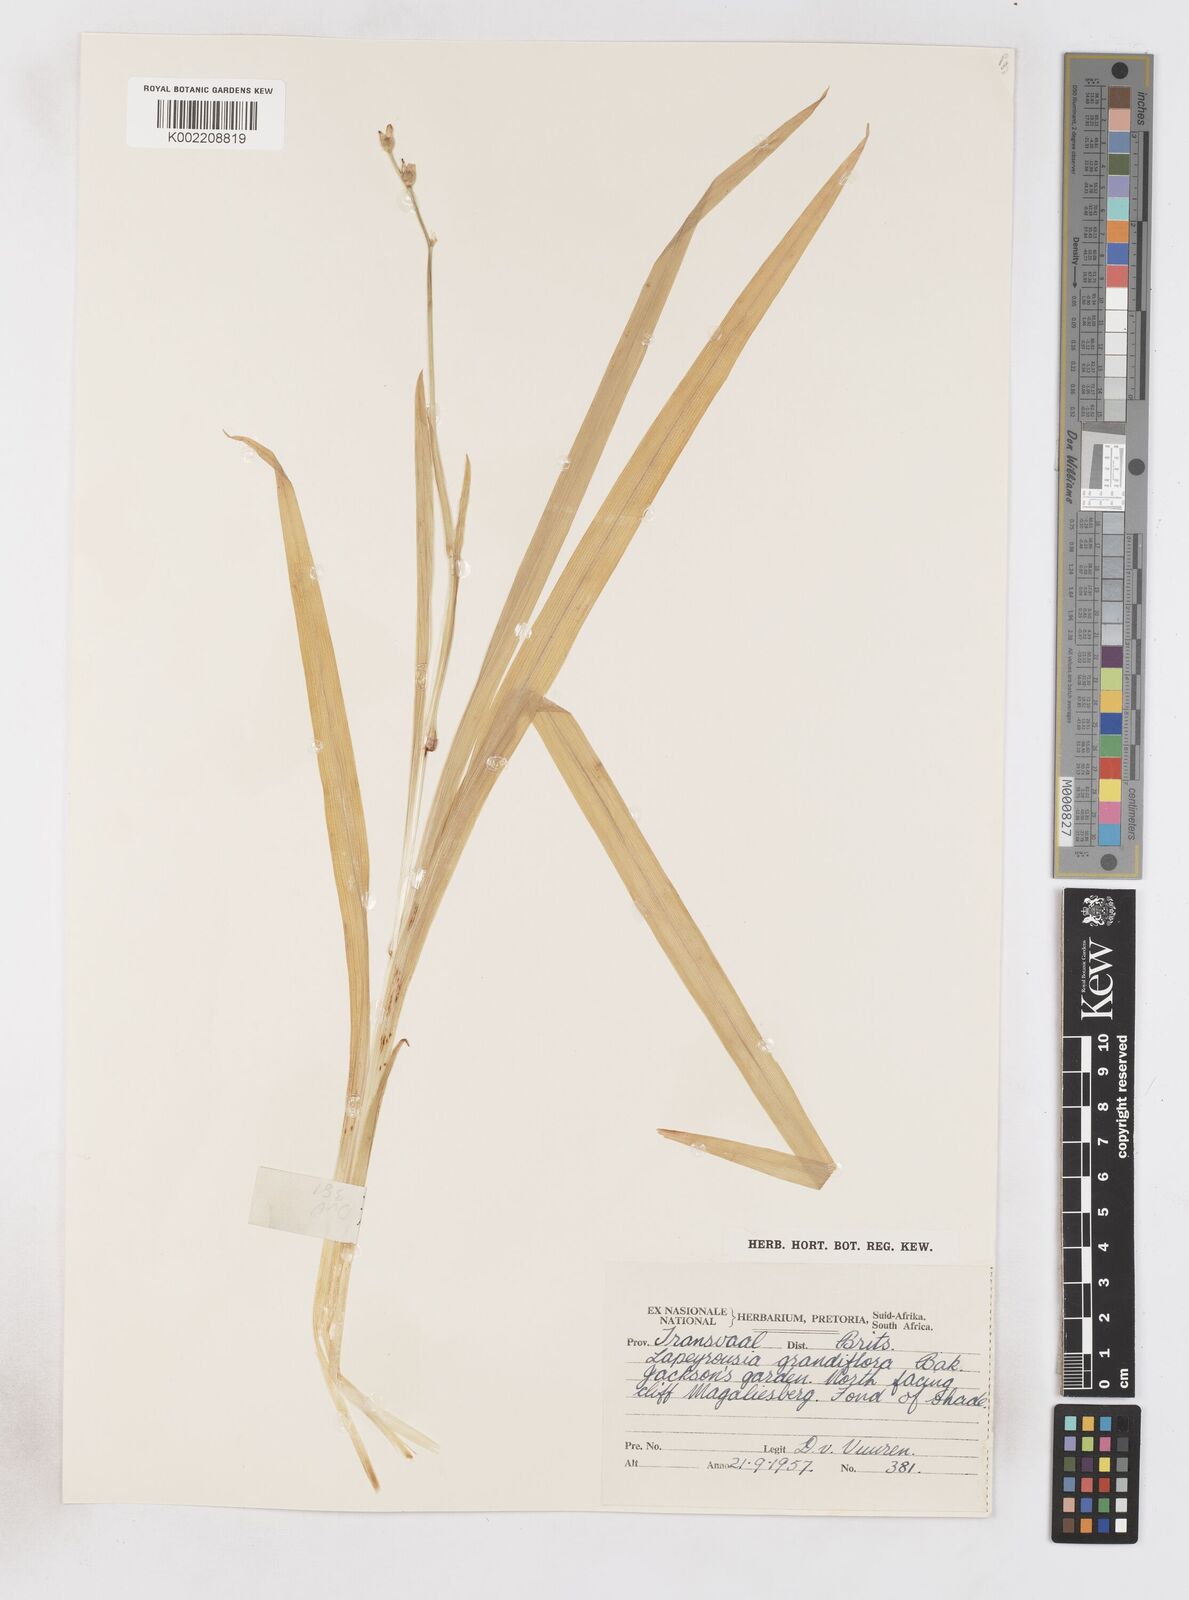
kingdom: Plantae
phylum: Tracheophyta
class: Liliopsida
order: Asparagales
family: Iridaceae
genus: Freesia
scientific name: Freesia grandiflora
